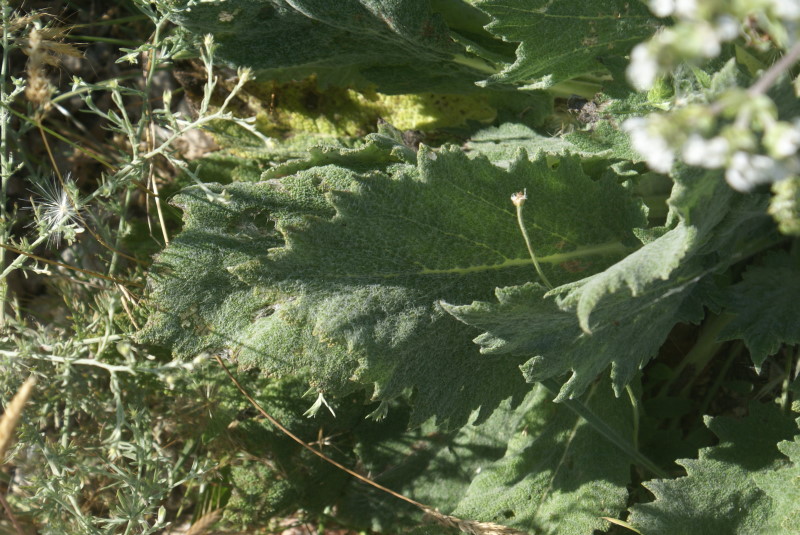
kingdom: Plantae
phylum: Tracheophyta
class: Magnoliopsida
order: Lamiales
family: Lamiaceae
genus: Salvia
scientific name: Salvia aethiopis
